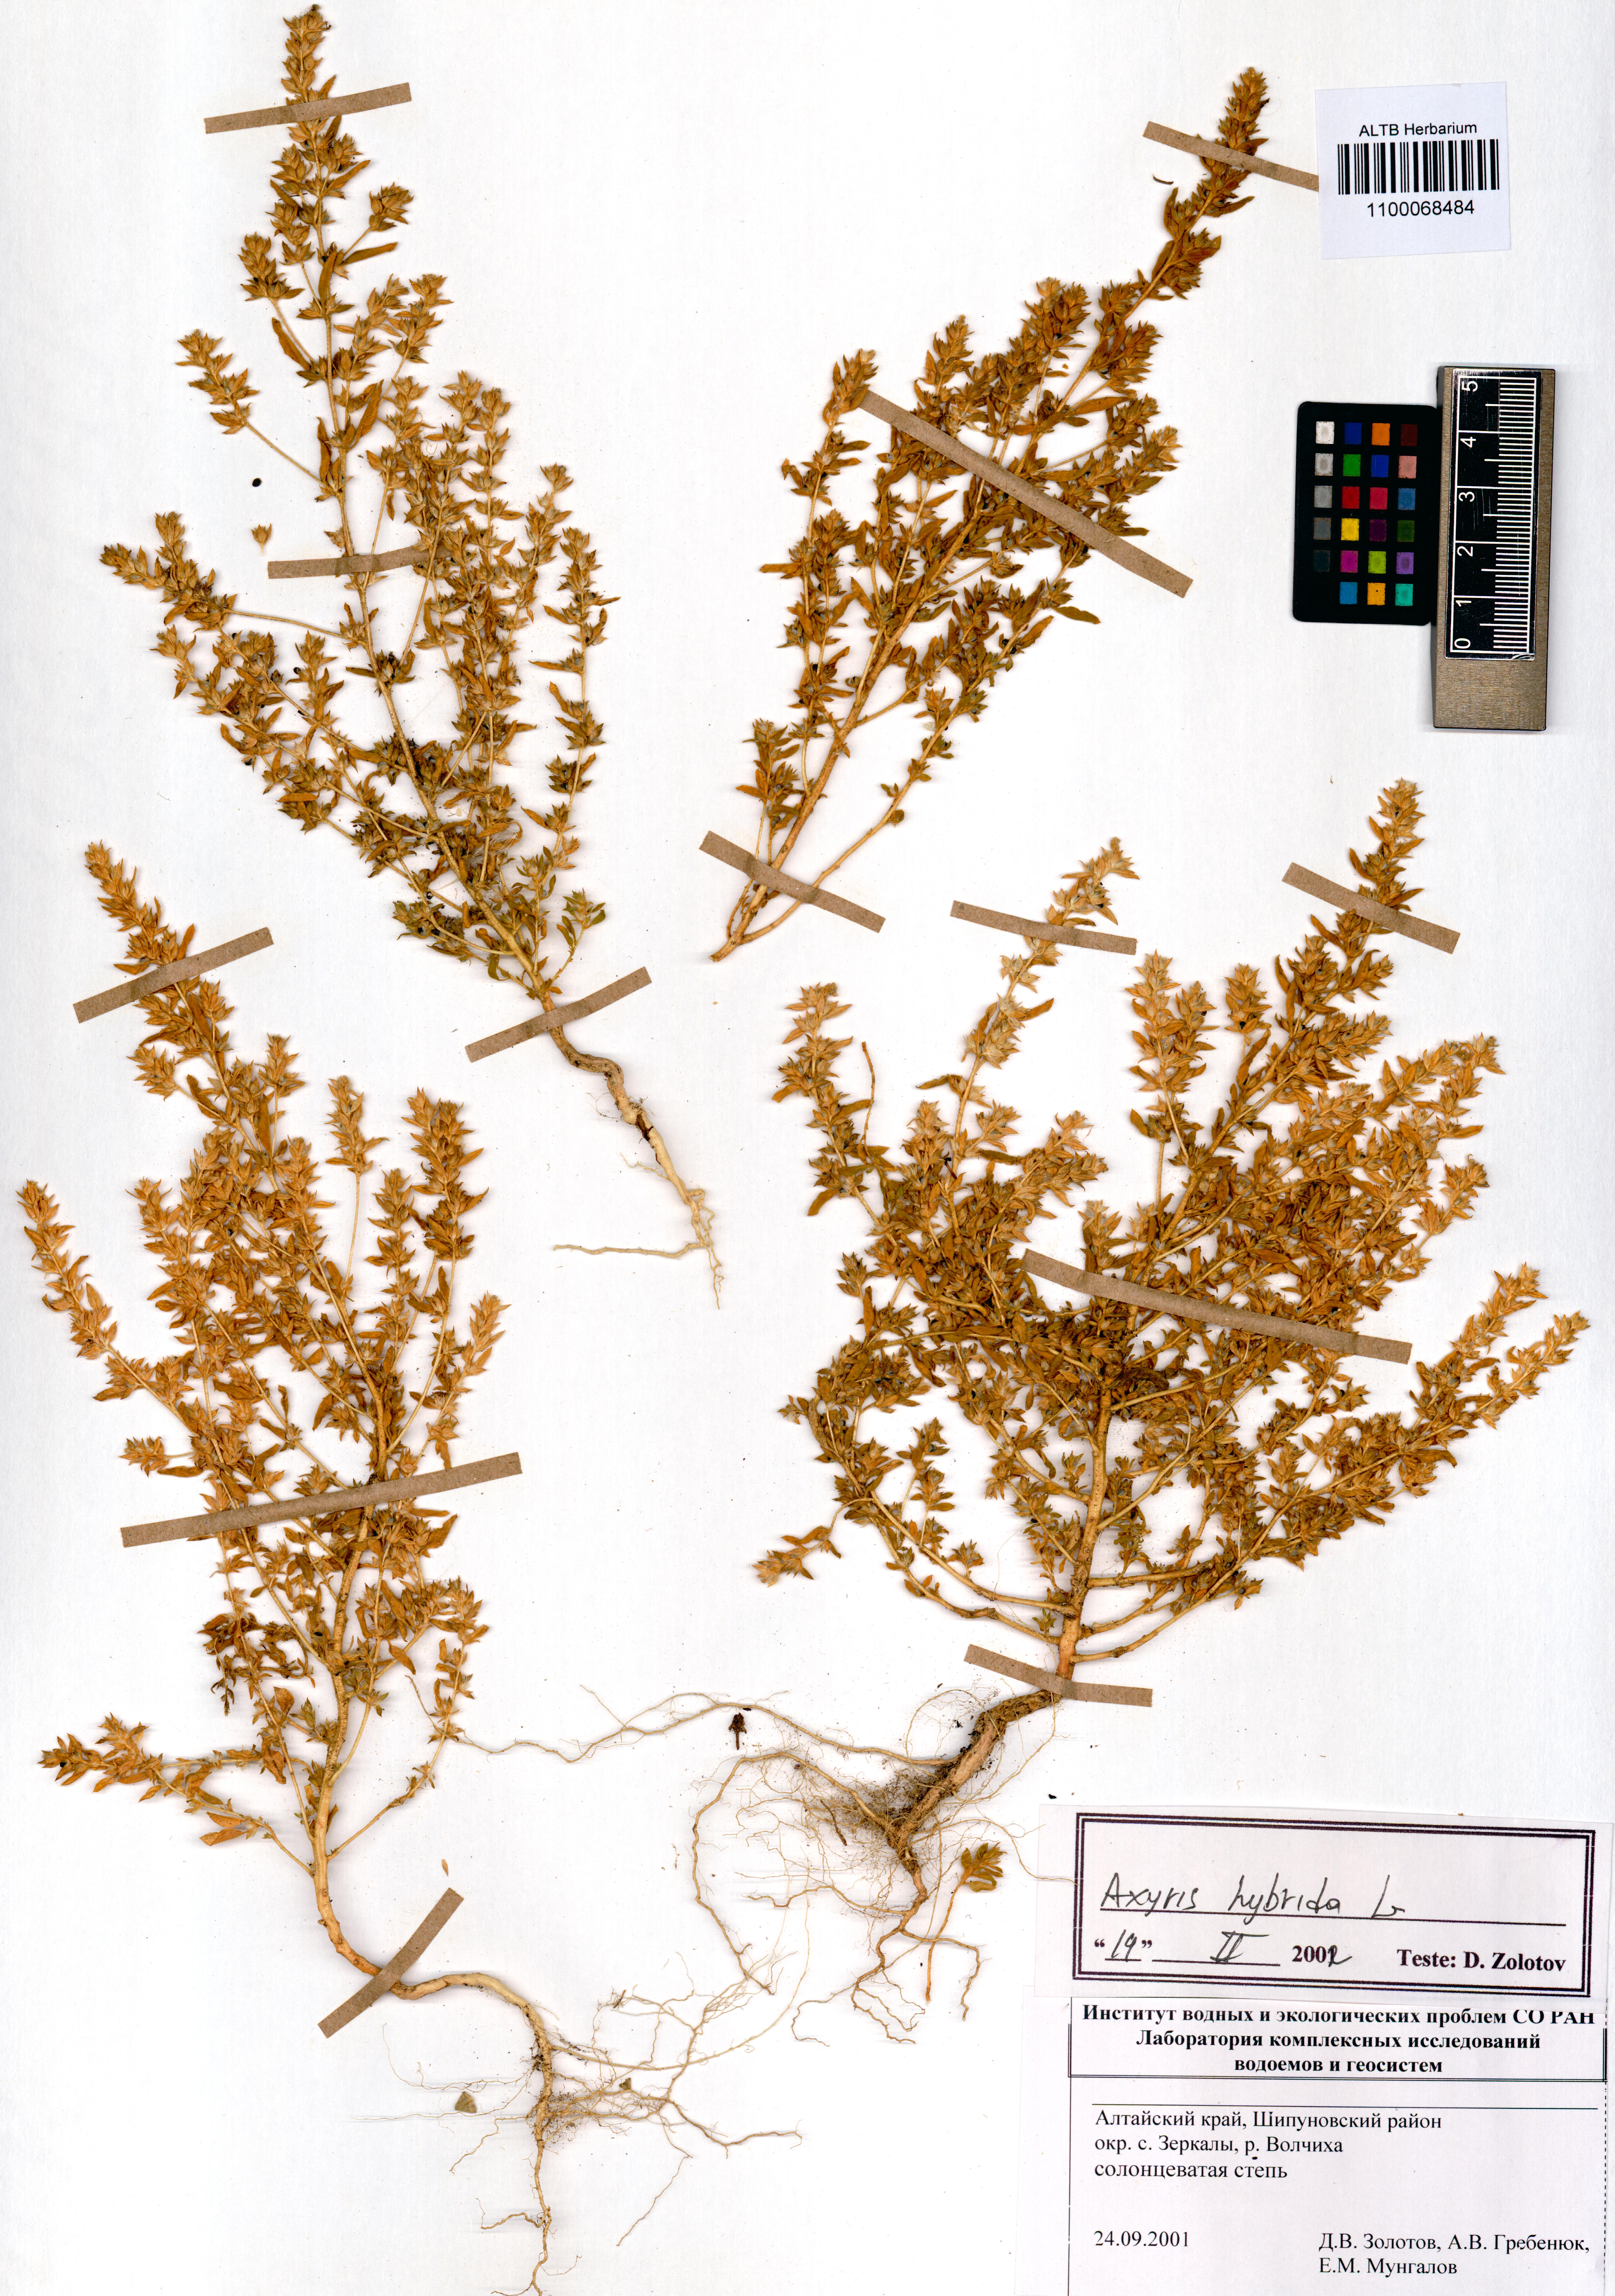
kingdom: Plantae
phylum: Tracheophyta
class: Magnoliopsida
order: Caryophyllales
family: Amaranthaceae
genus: Axyris
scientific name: Axyris hybrida
